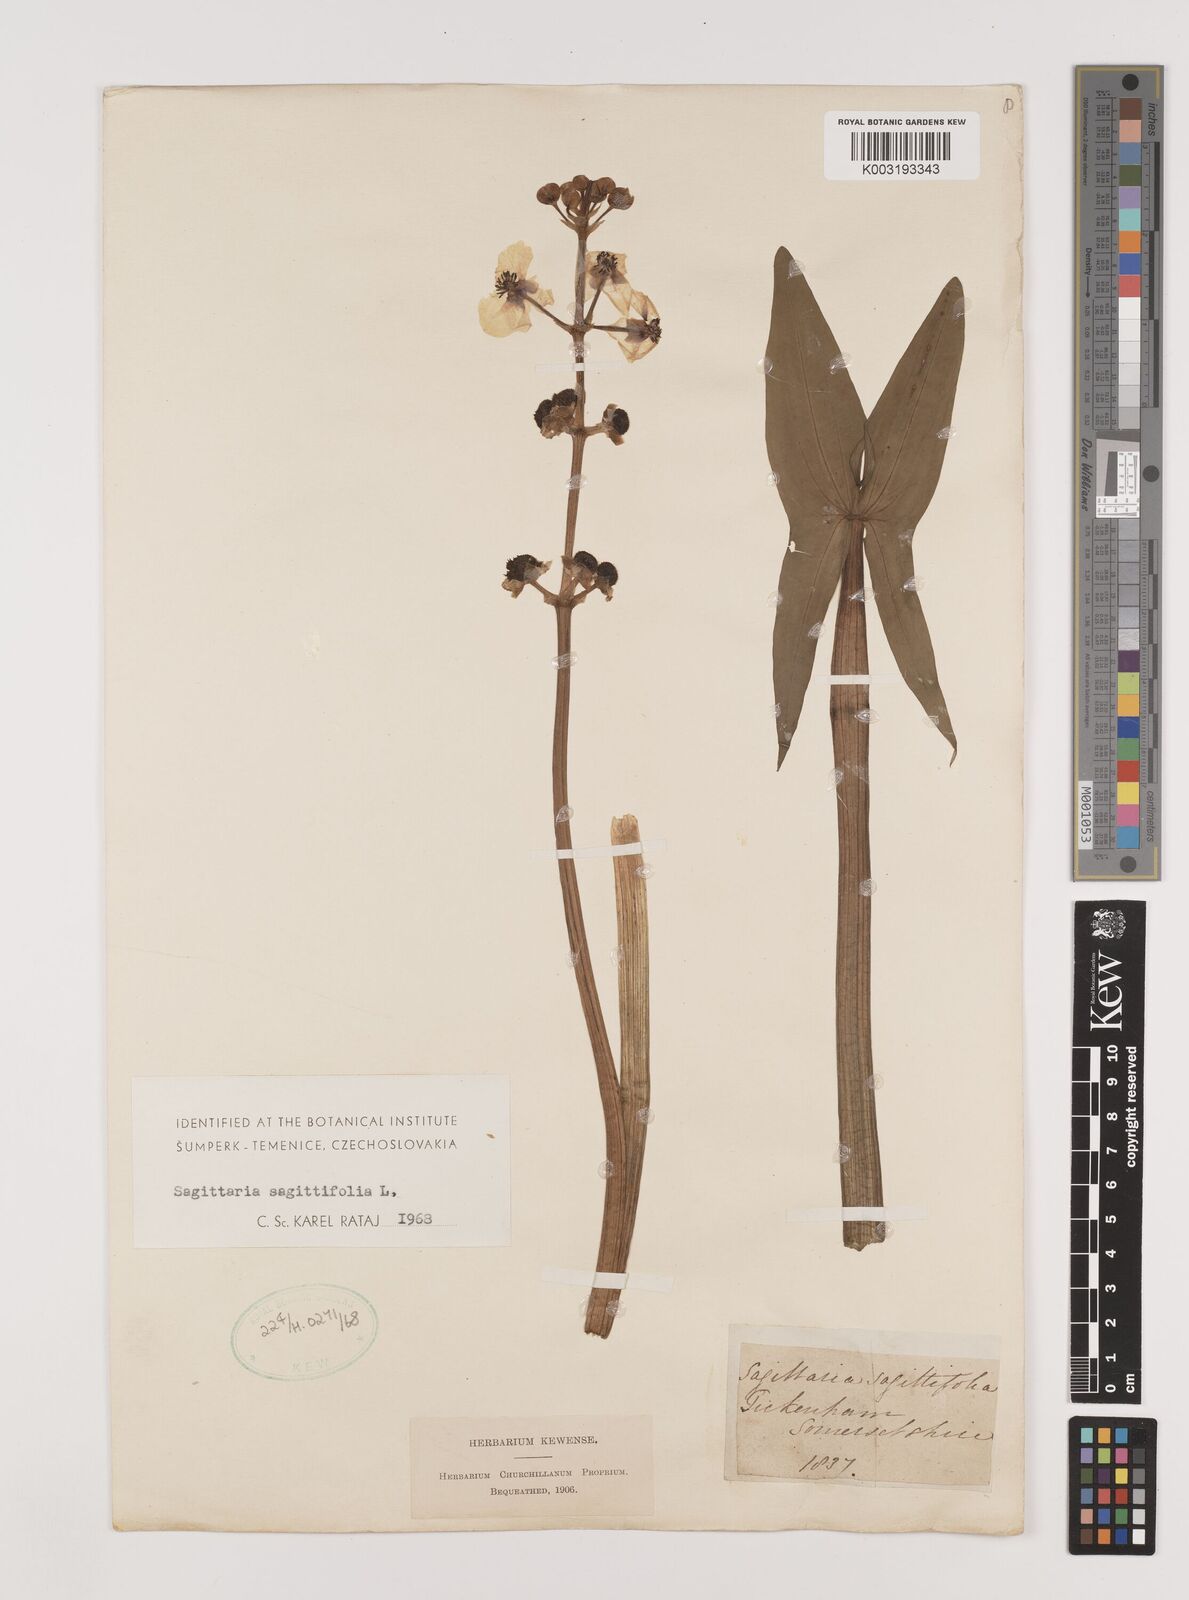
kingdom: Plantae
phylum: Tracheophyta
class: Liliopsida
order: Alismatales
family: Alismataceae
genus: Sagittaria
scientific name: Sagittaria sagittifolia
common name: Arrowhead
